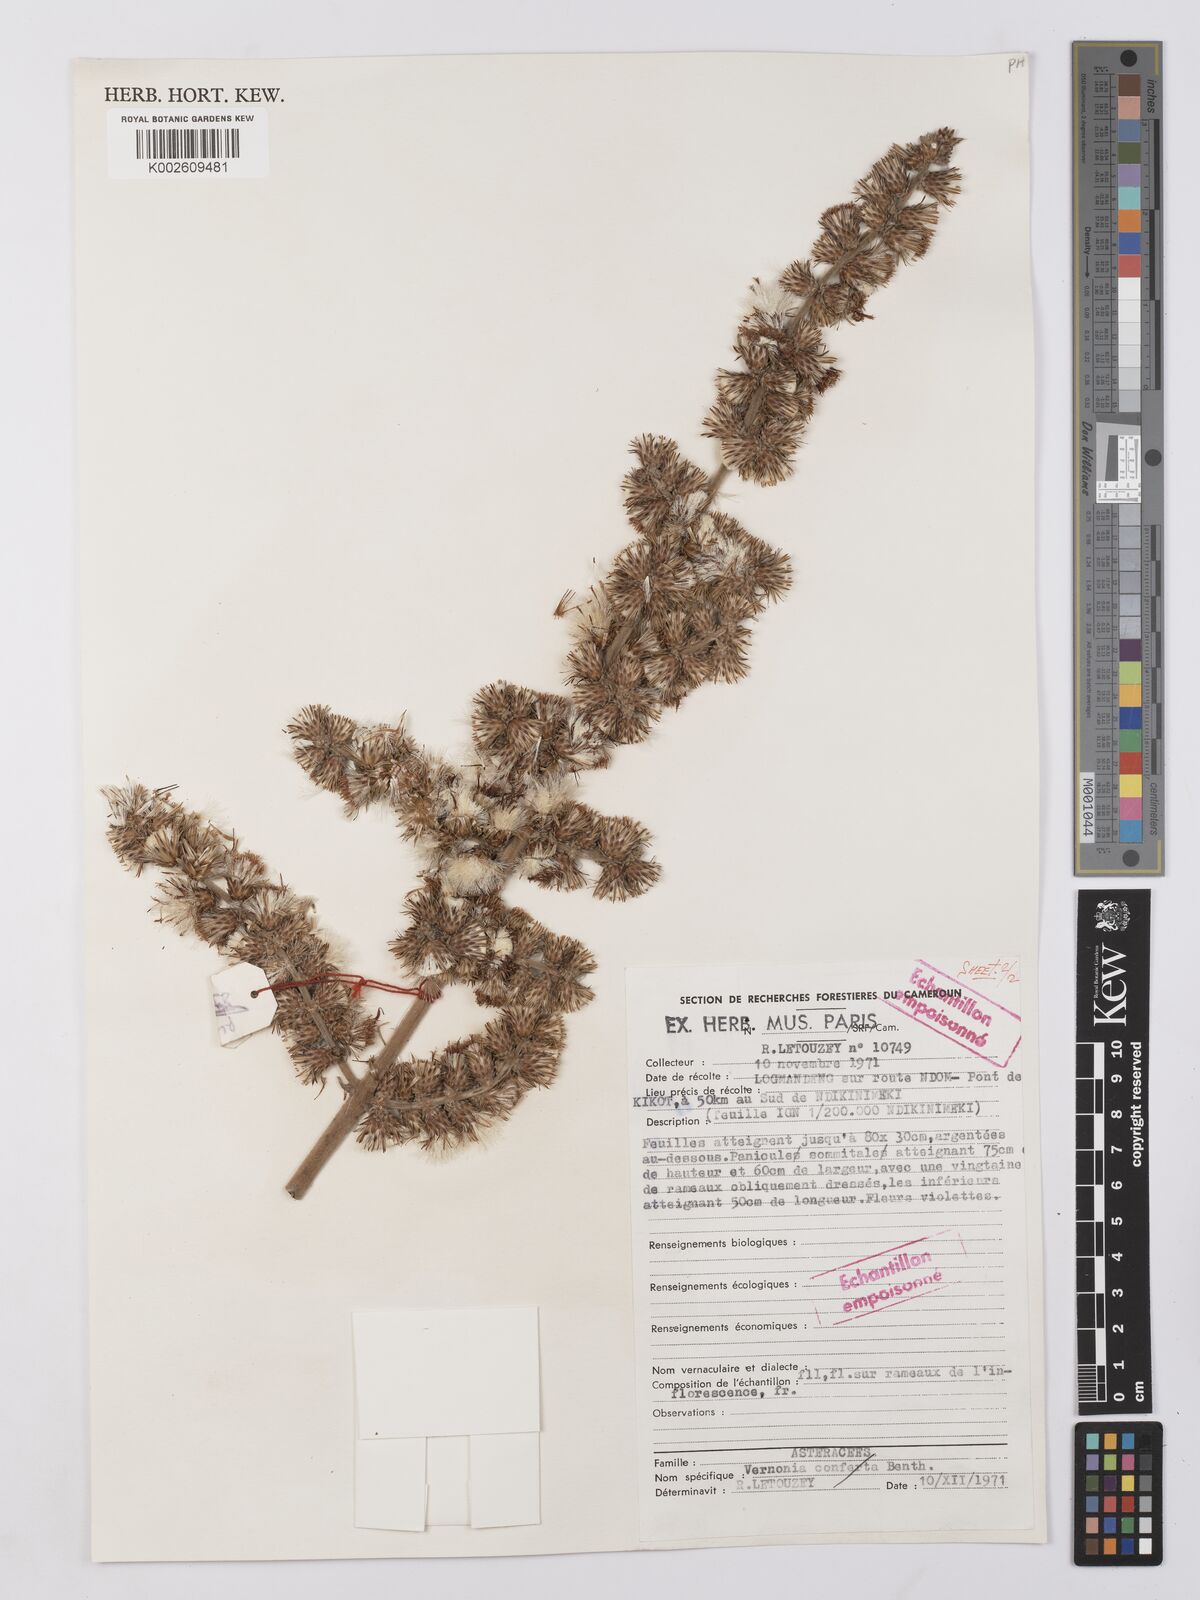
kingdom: Plantae
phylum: Tracheophyta
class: Magnoliopsida
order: Asterales
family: Asteraceae
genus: Vernonia
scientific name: Vernonia
